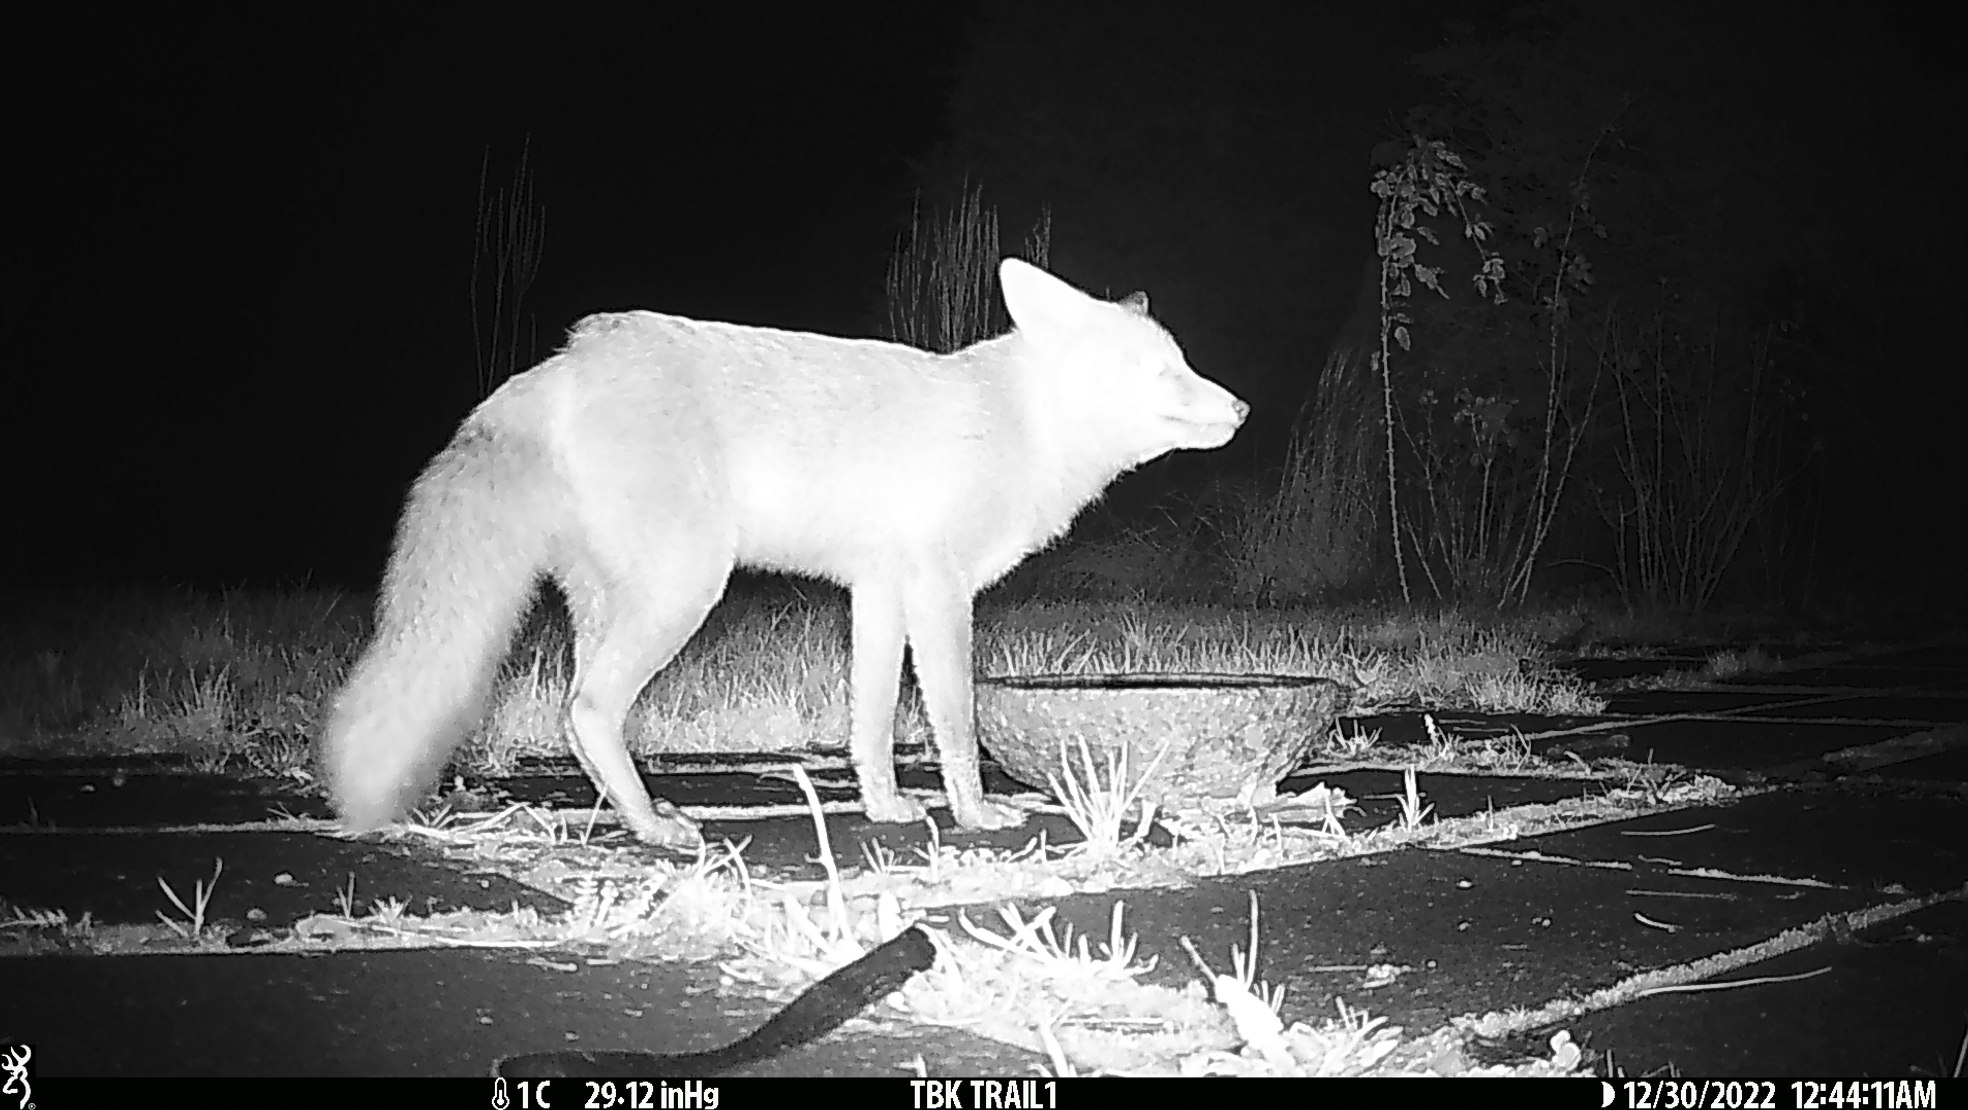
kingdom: Animalia
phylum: Chordata
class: Mammalia
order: Carnivora
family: Canidae
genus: Vulpes
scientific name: Vulpes vulpes
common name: Ræv
